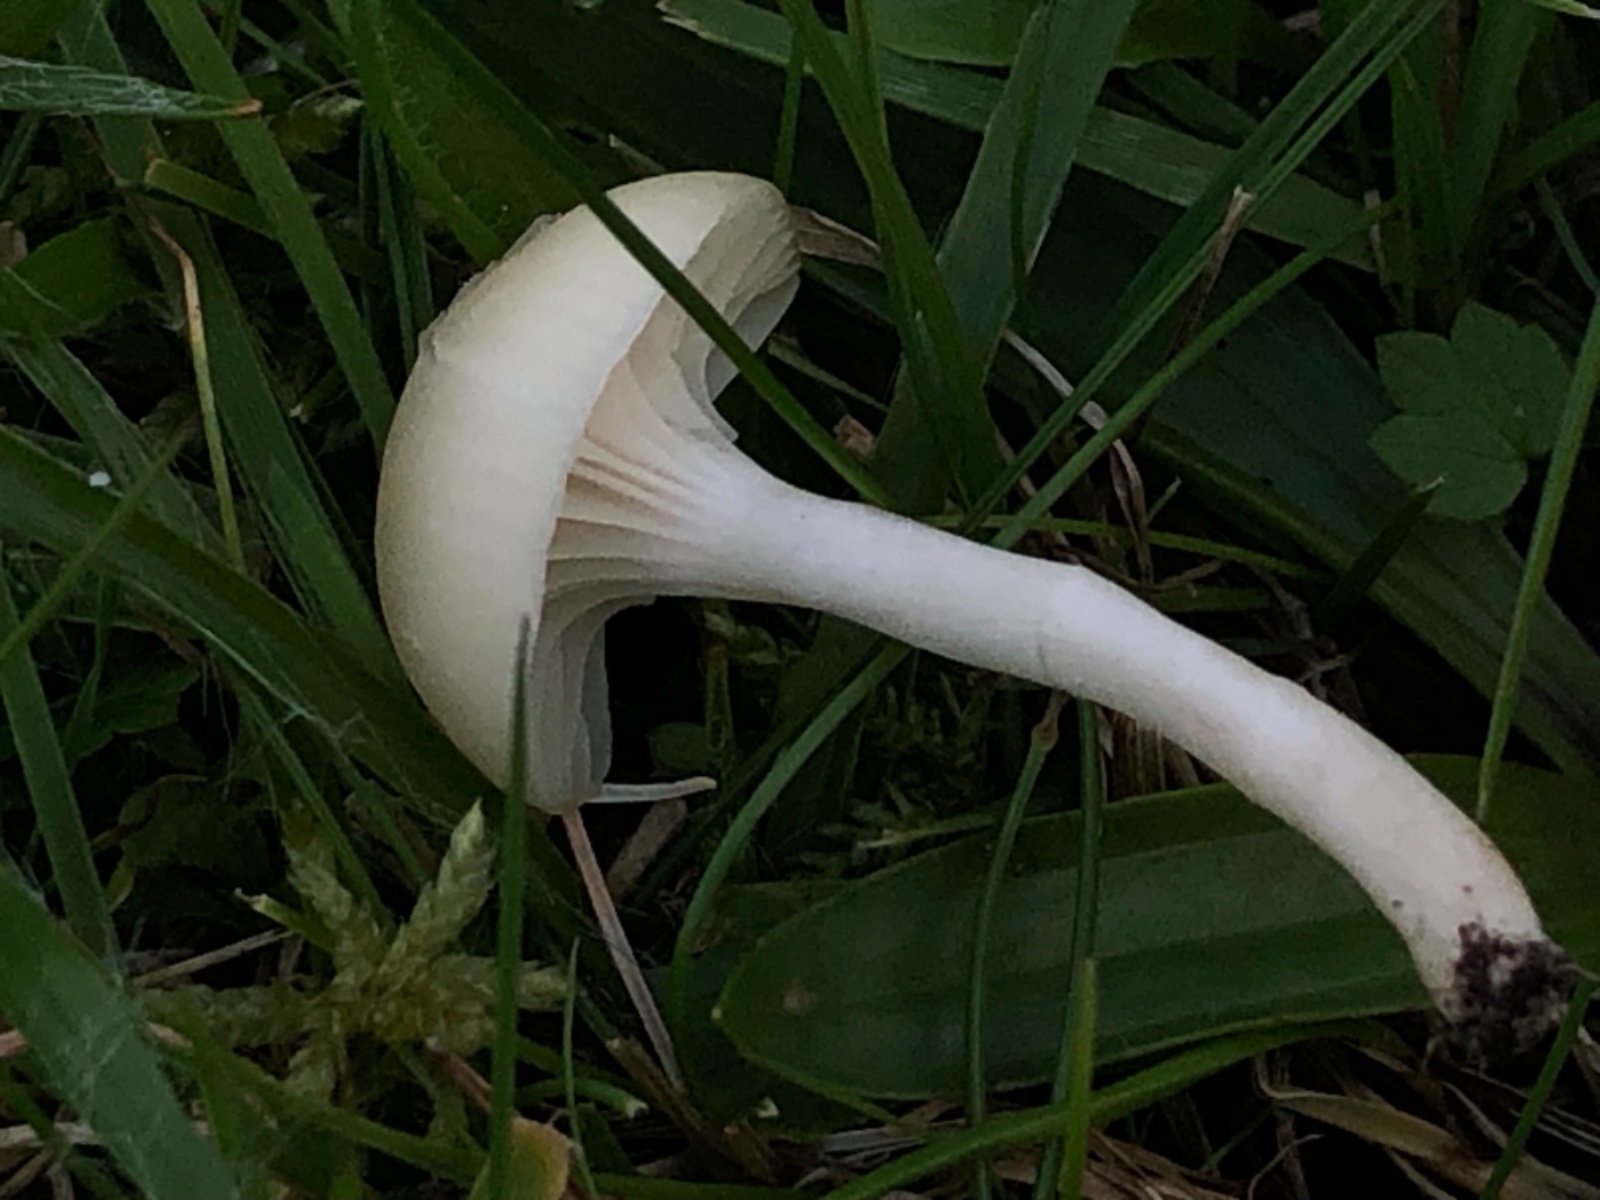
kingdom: Fungi
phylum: Basidiomycota
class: Agaricomycetes
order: Agaricales
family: Hygrophoraceae
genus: Cuphophyllus
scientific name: Cuphophyllus russocoriaceus
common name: ruslæder-vokshat
